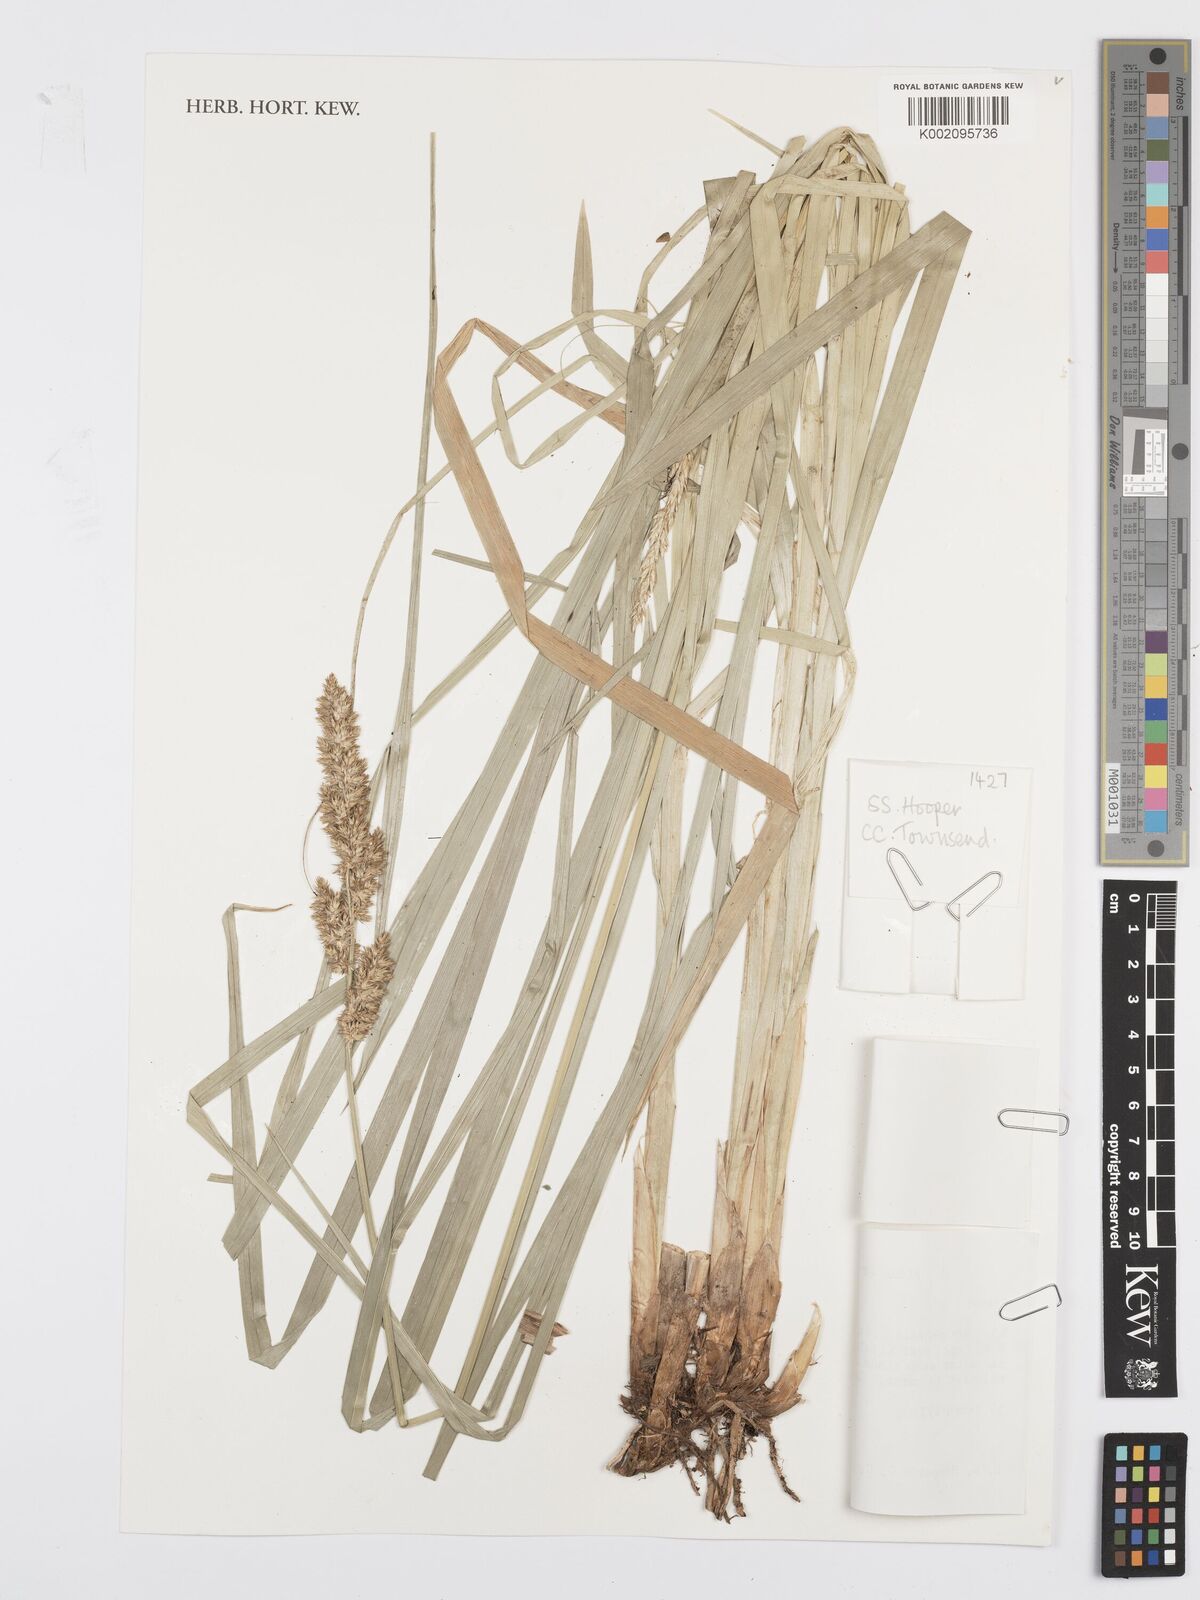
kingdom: Plantae
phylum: Tracheophyta
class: Liliopsida
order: Poales
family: Cyperaceae
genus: Carex
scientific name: Carex lycurus
